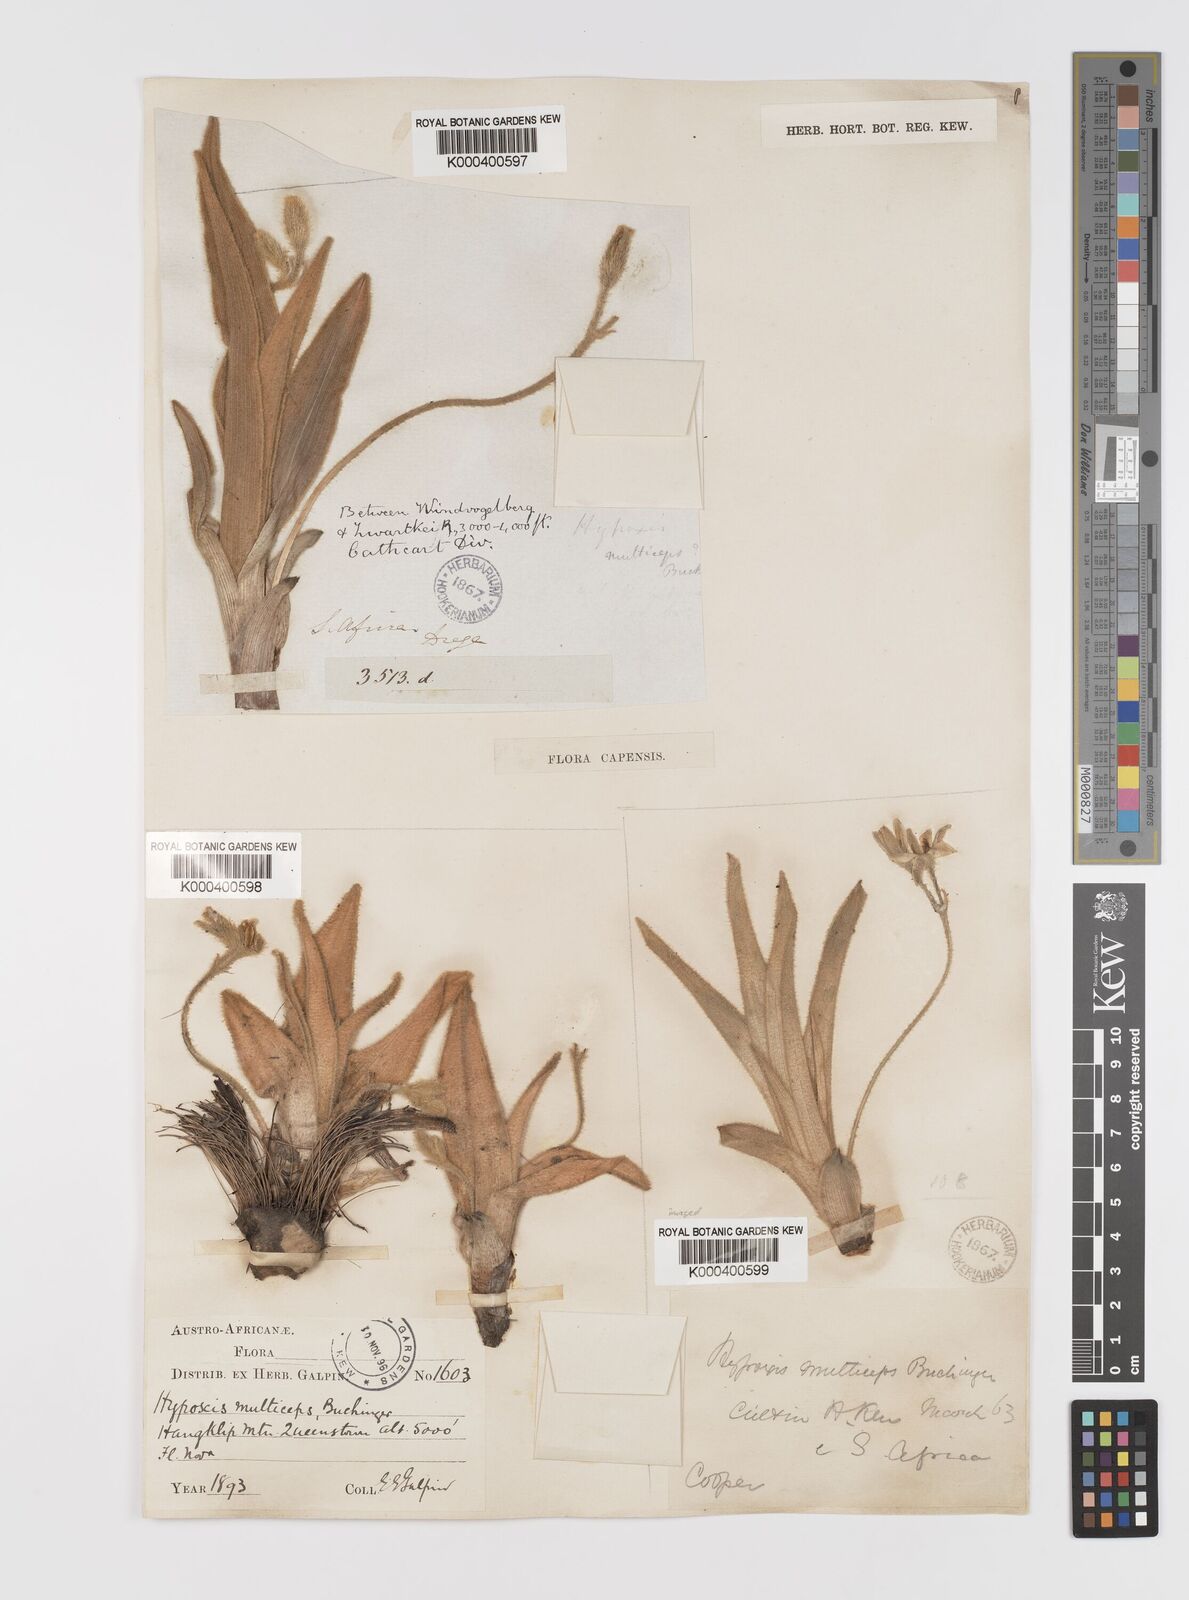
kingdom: Plantae
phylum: Tracheophyta
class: Liliopsida
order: Asparagales
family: Hypoxidaceae
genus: Hypoxis
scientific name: Hypoxis
